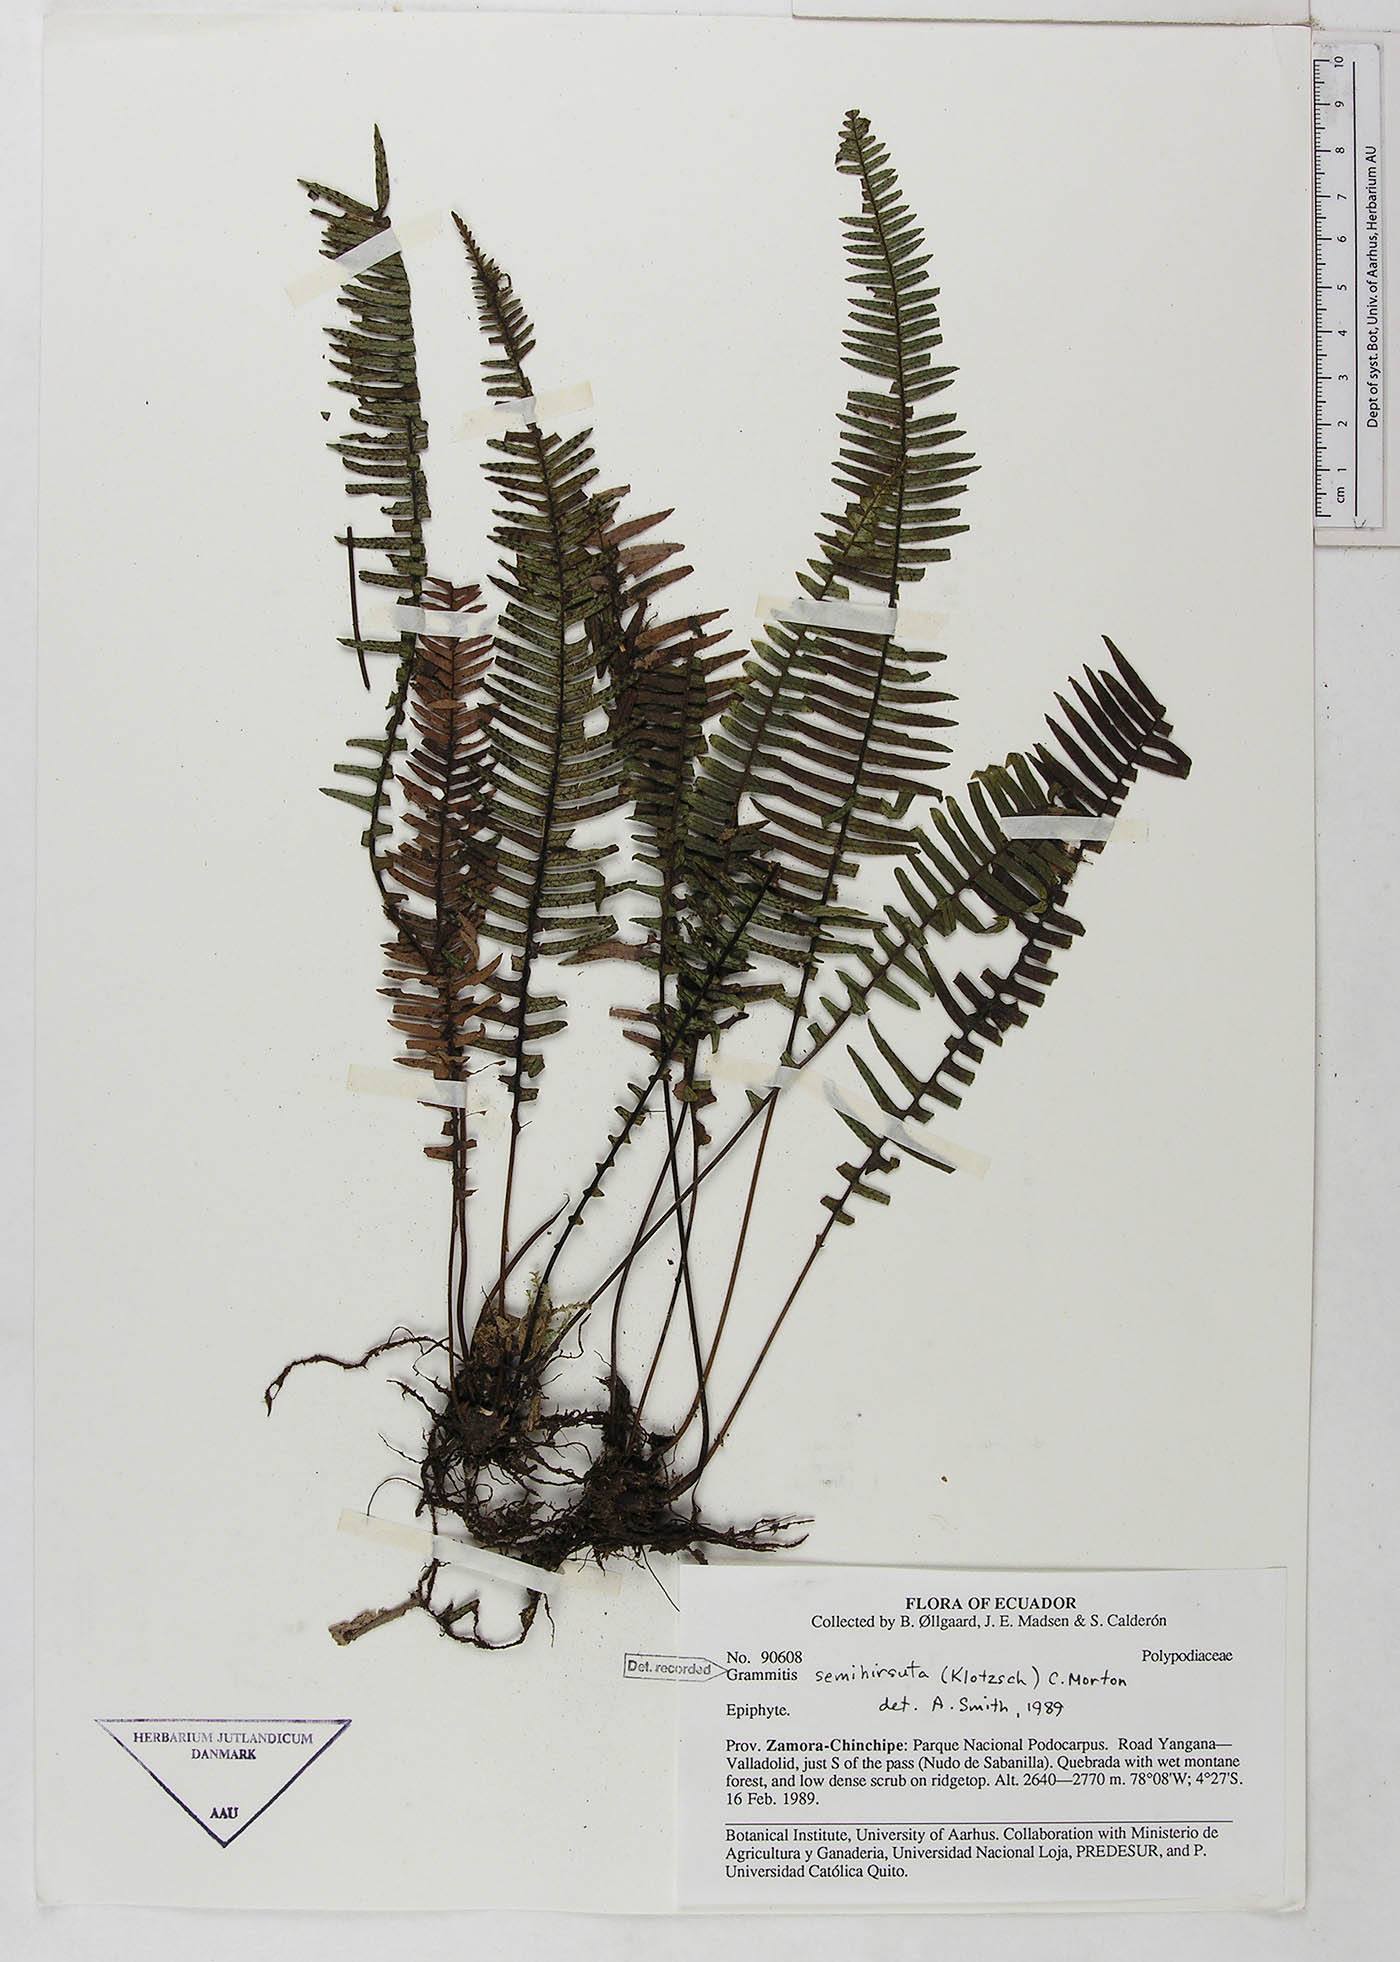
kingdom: Plantae
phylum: Tracheophyta
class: Polypodiopsida
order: Polypodiales
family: Polypodiaceae
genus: Mycopteris
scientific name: Mycopteris semihirsuta
